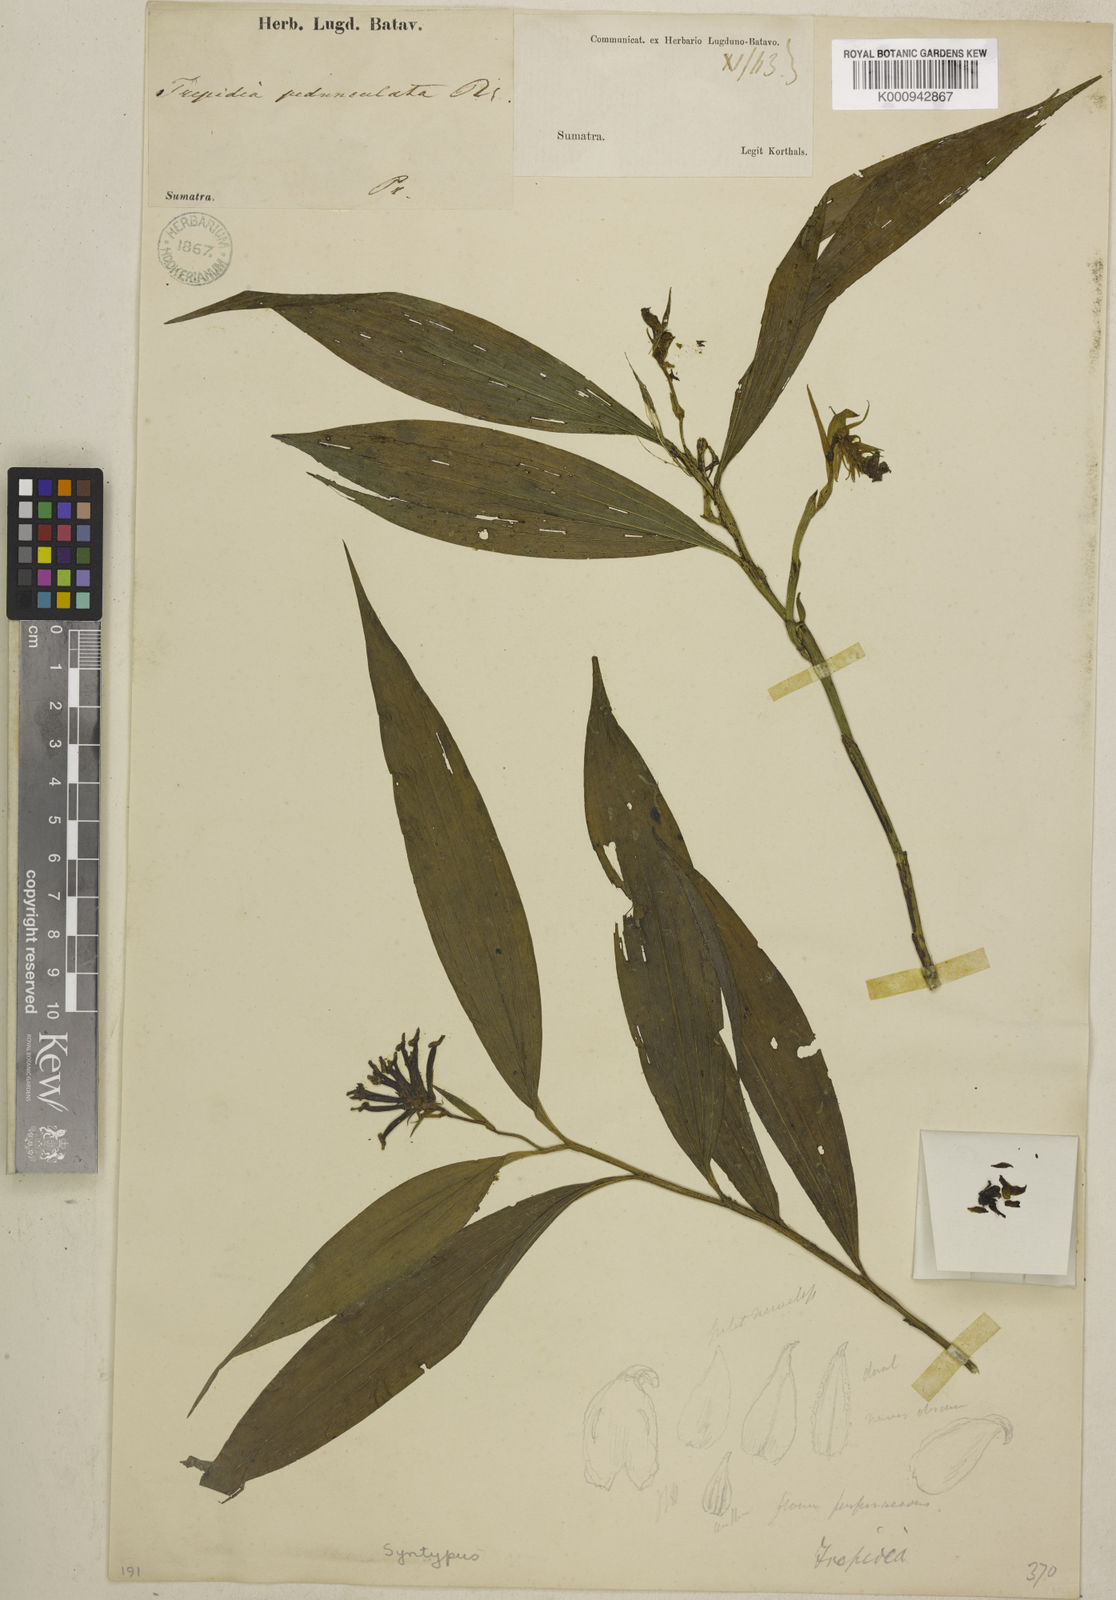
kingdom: Plantae
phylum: Tracheophyta
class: Liliopsida
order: Asparagales
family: Orchidaceae
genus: Tropidia
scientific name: Tropidia pedunculata
